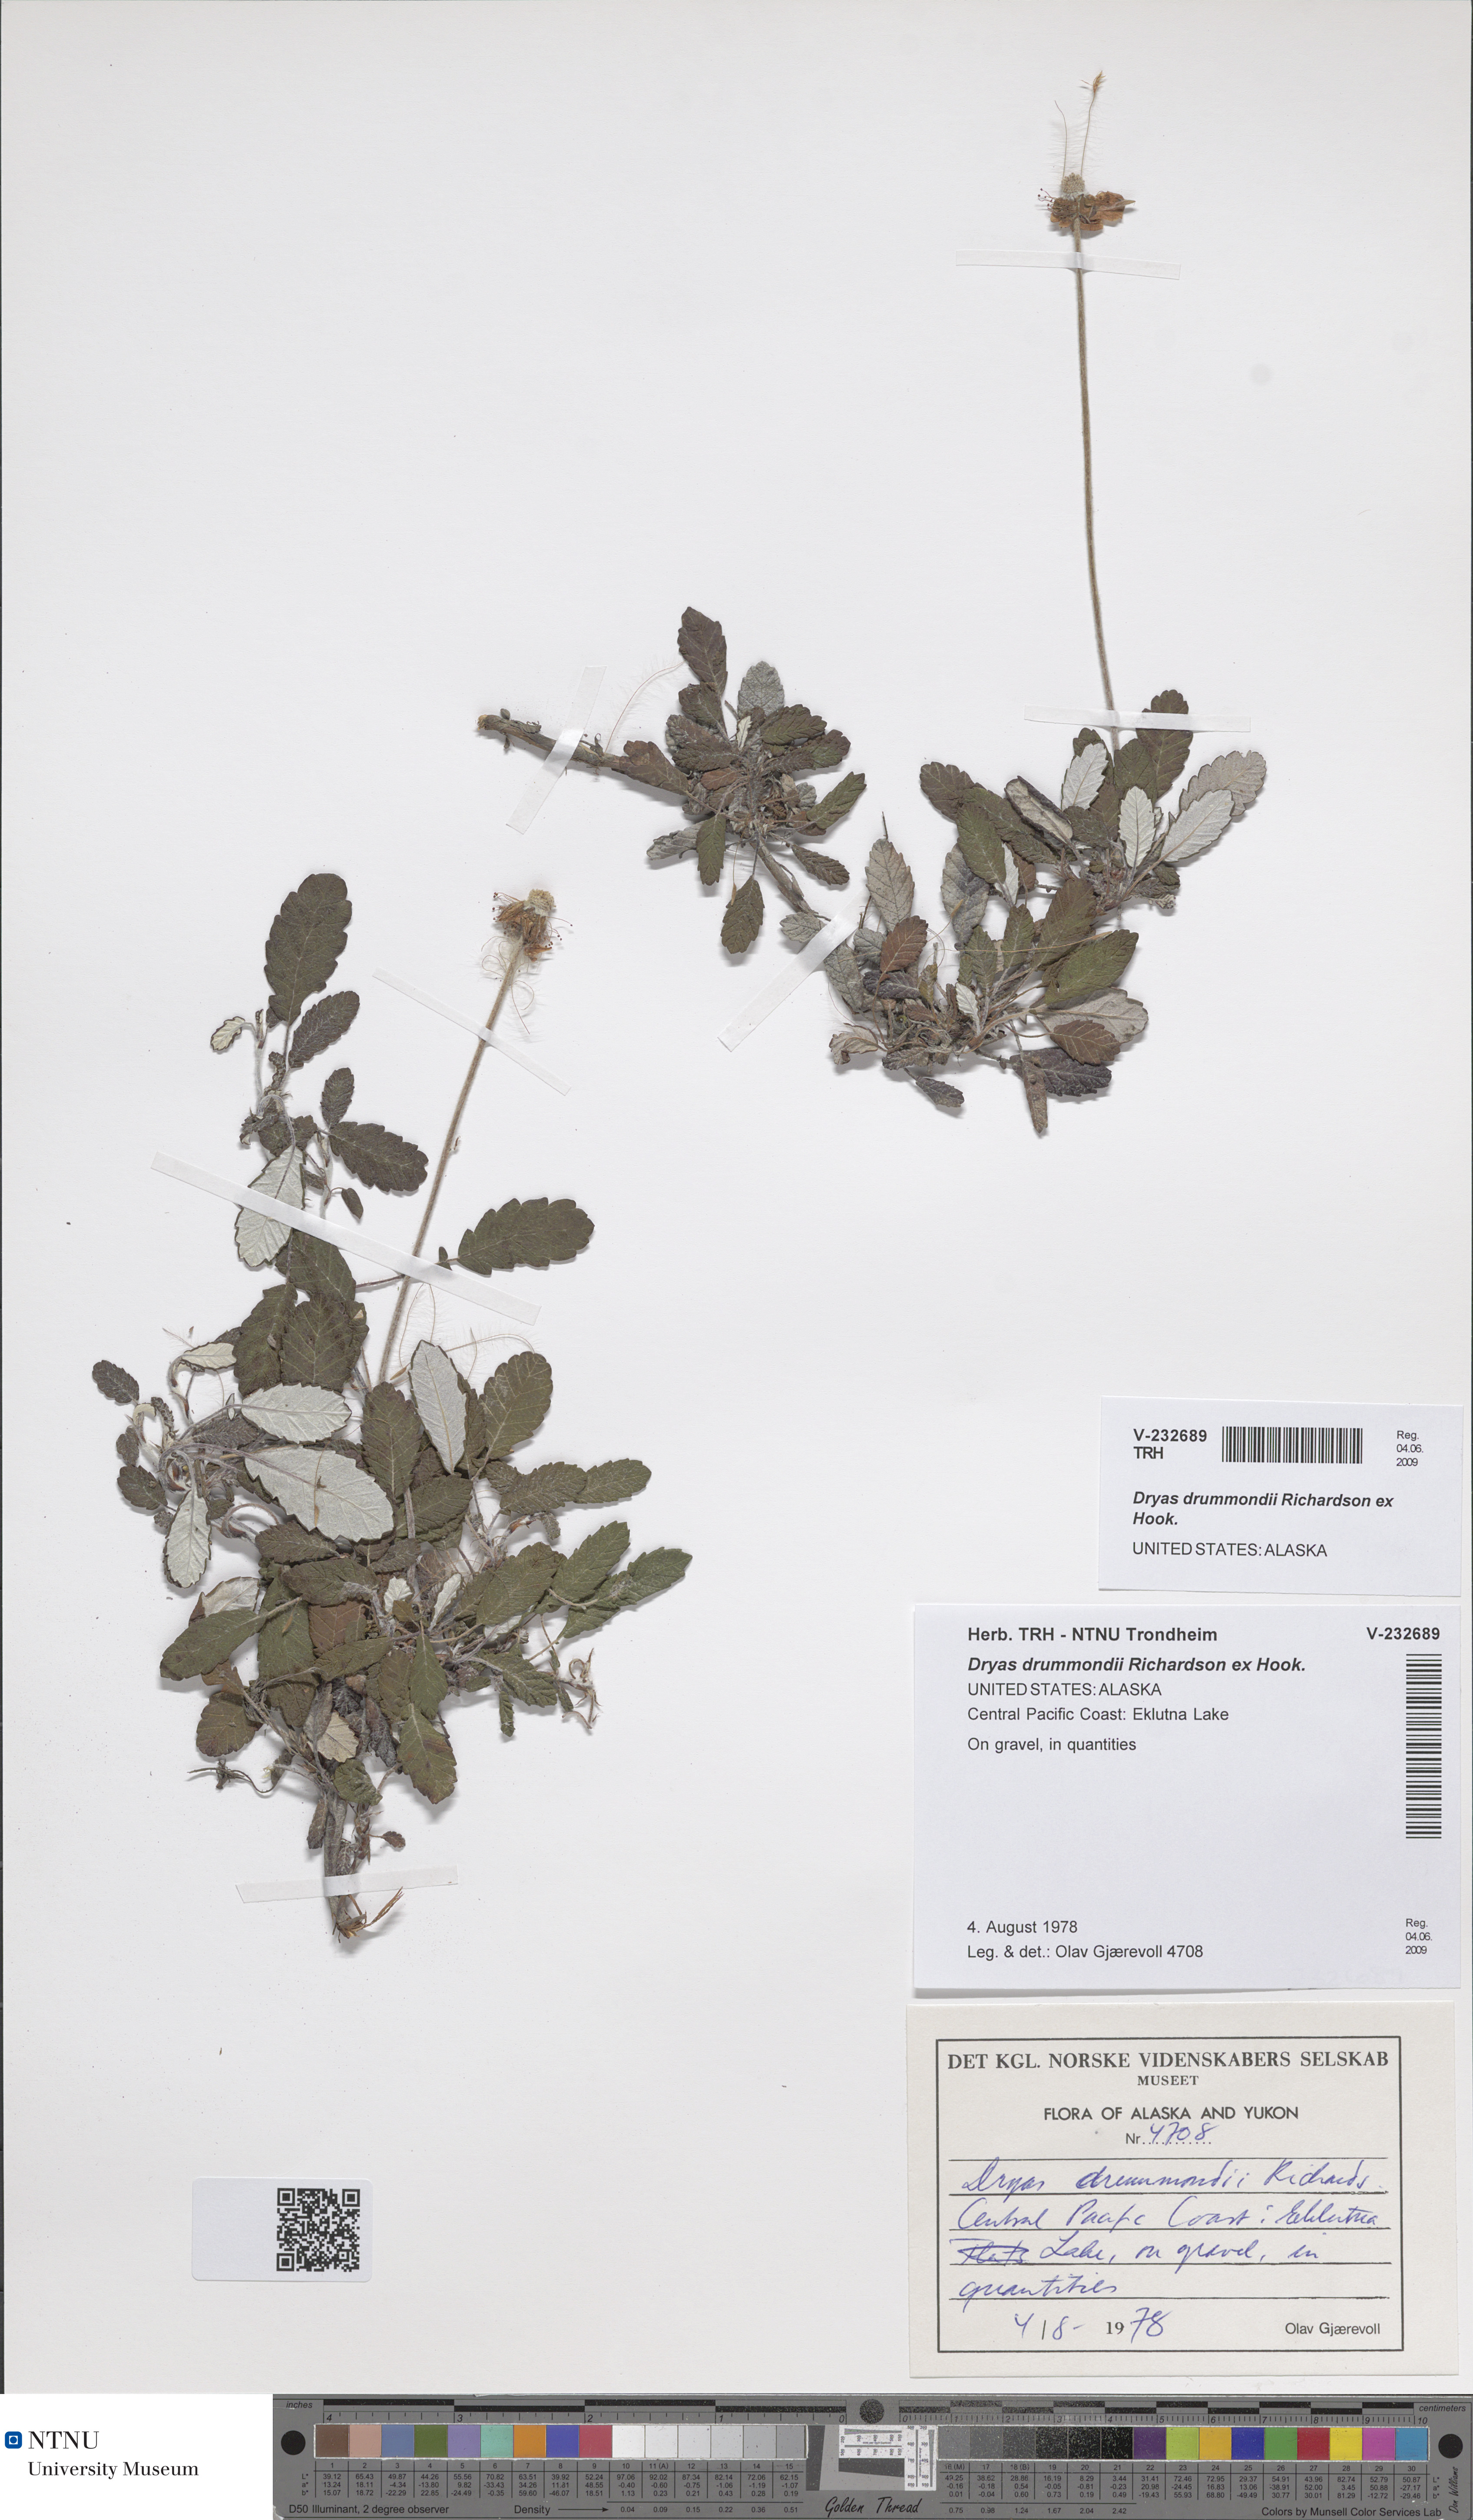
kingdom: Plantae
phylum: Tracheophyta
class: Magnoliopsida
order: Rosales
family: Rosaceae
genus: Dryas
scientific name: Dryas drummondii
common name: Drummond's dryad
